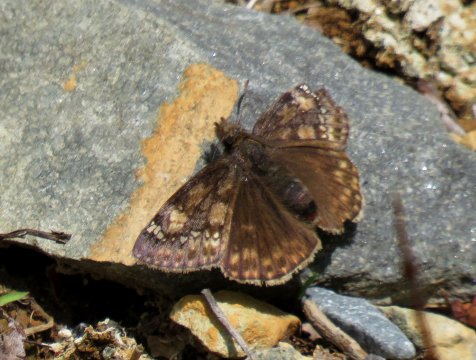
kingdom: Animalia
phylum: Arthropoda
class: Insecta
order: Lepidoptera
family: Hesperiidae
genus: Gesta
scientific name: Gesta
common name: Juvenal's Duskywing
